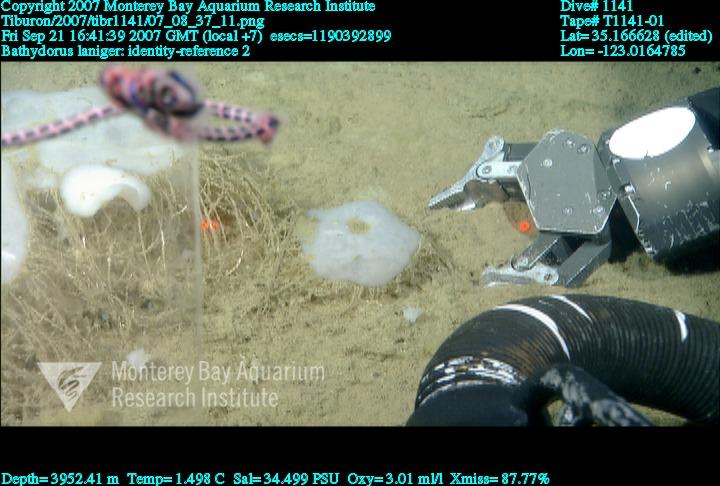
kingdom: Animalia
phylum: Porifera
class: Hexactinellida
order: Lyssacinosida
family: Rossellidae
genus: Bathydorus
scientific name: Bathydorus laniger
